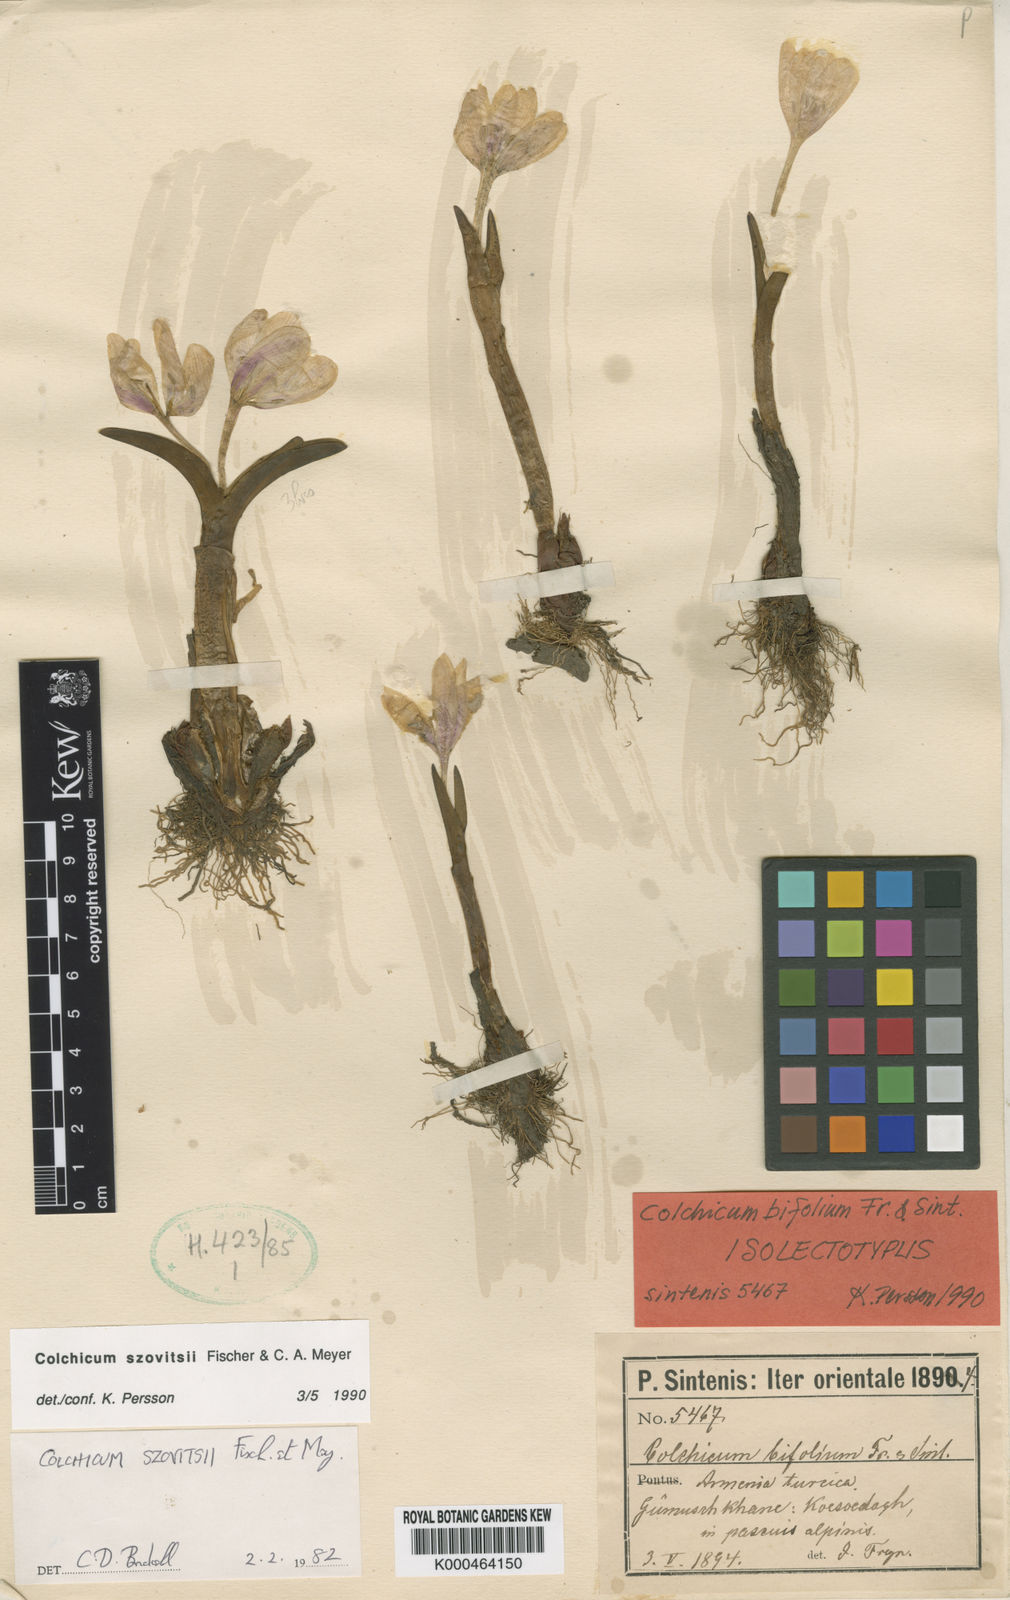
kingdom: Plantae
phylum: Tracheophyta
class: Liliopsida
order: Liliales
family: Colchicaceae
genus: Colchicum
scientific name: Colchicum szovitsii
